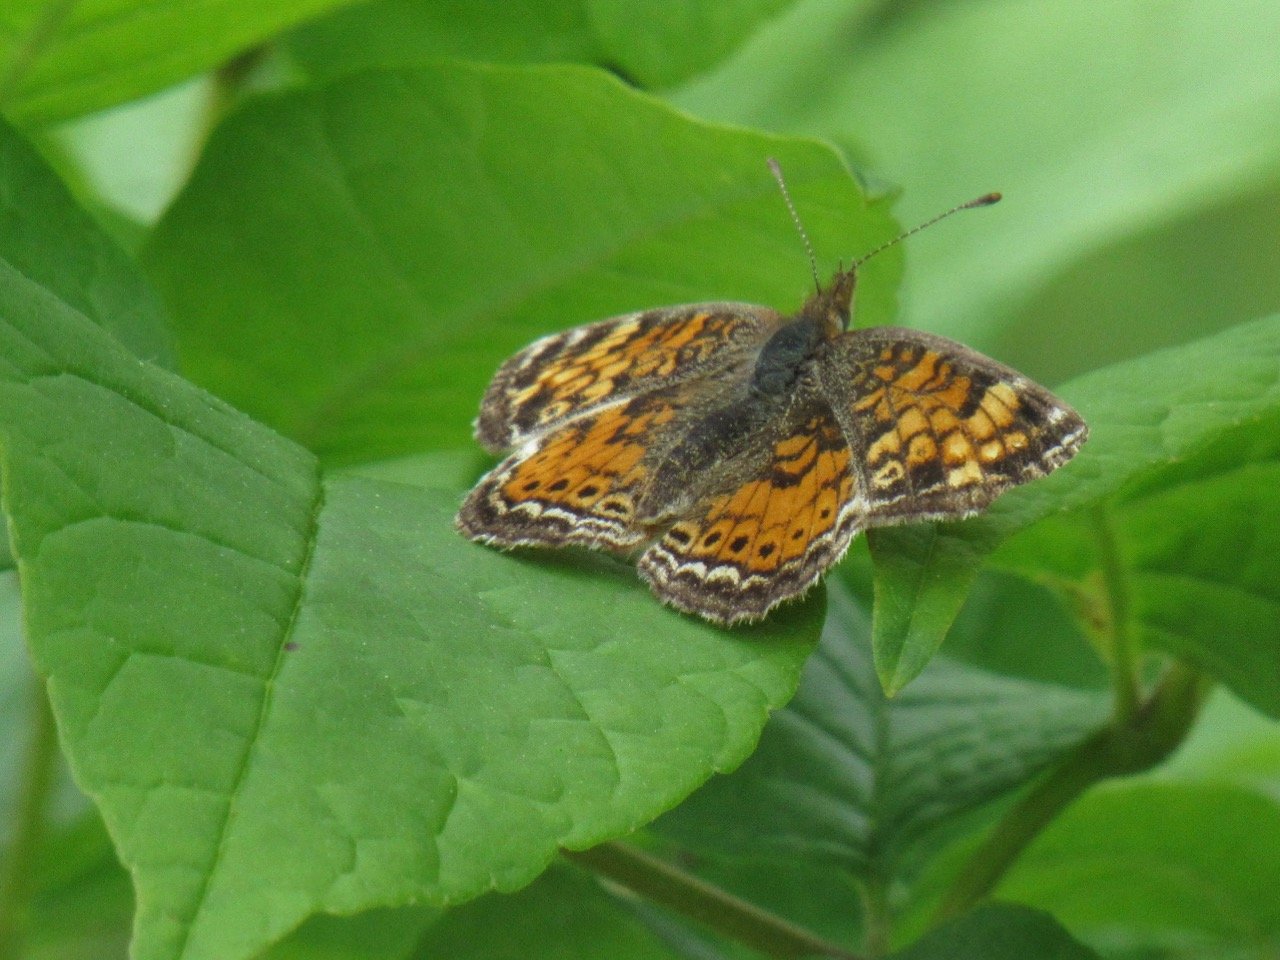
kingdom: Animalia
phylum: Arthropoda
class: Insecta
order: Lepidoptera
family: Nymphalidae
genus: Phyciodes
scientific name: Phyciodes tharos
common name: Pearl Crescent
